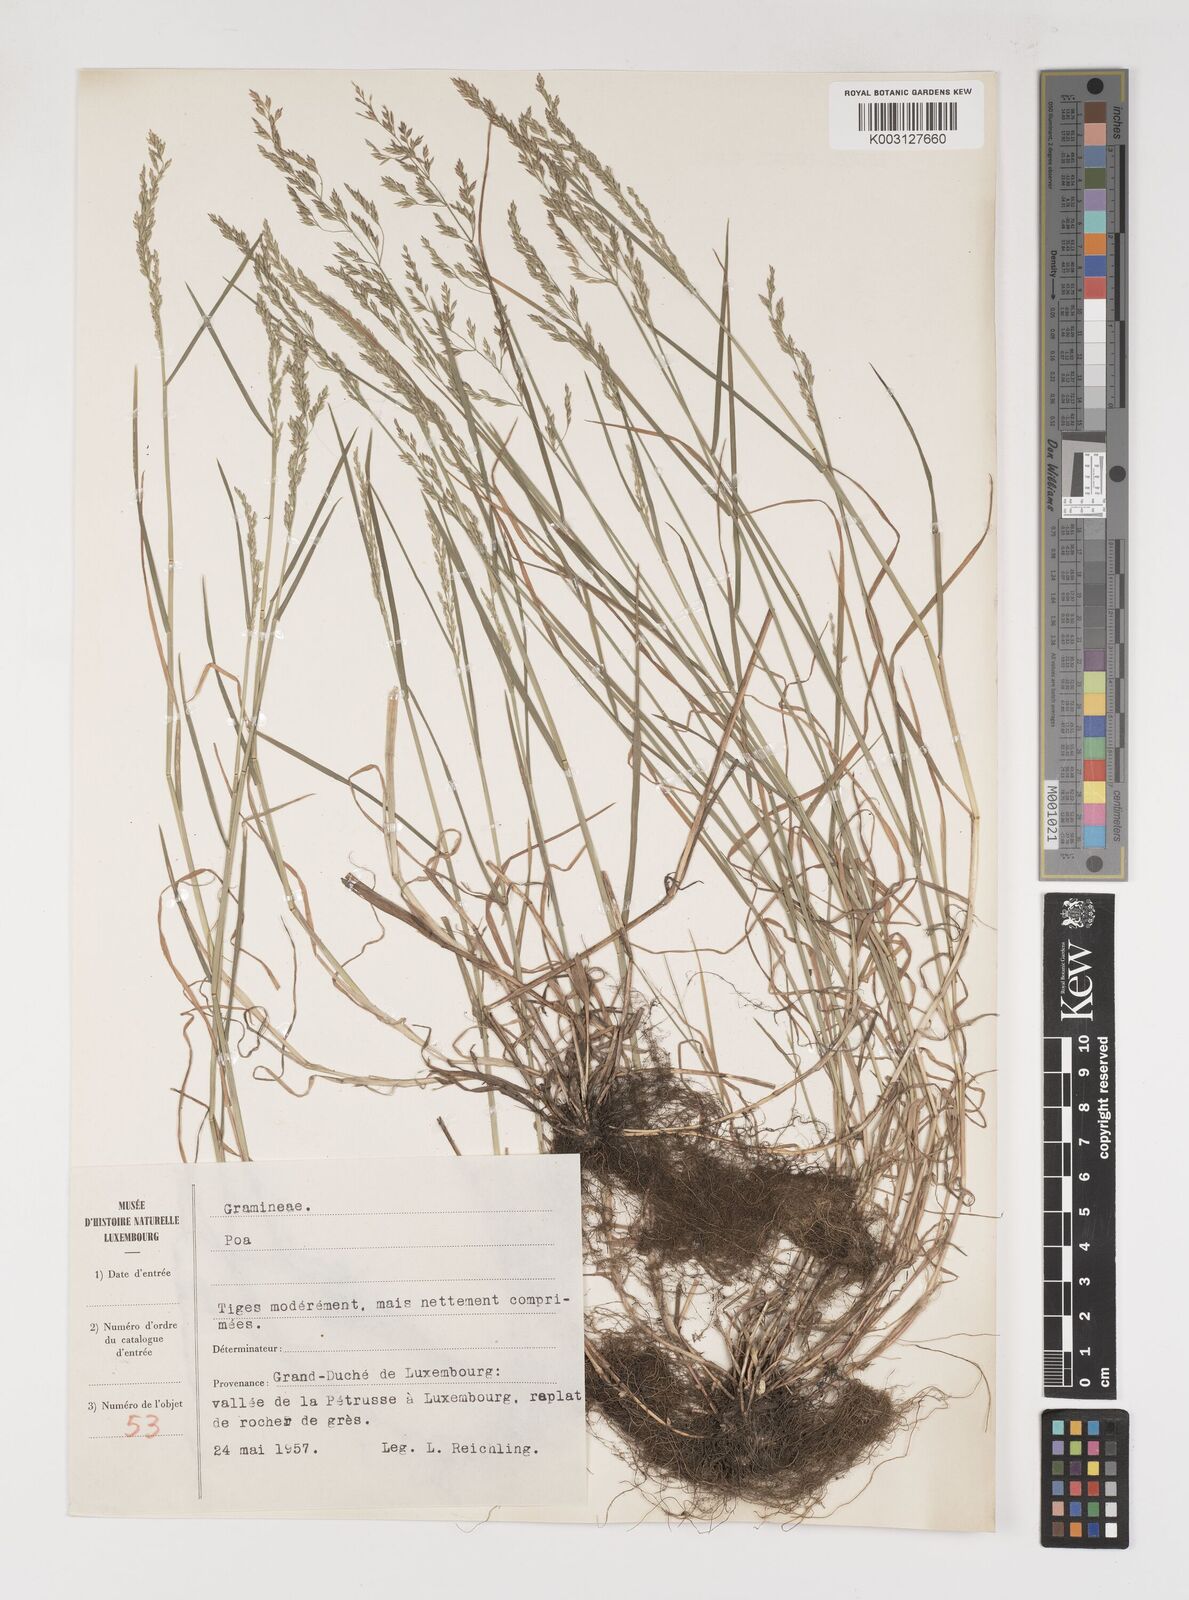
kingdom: Plantae
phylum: Tracheophyta
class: Liliopsida
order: Poales
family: Poaceae
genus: Poa
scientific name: Poa
